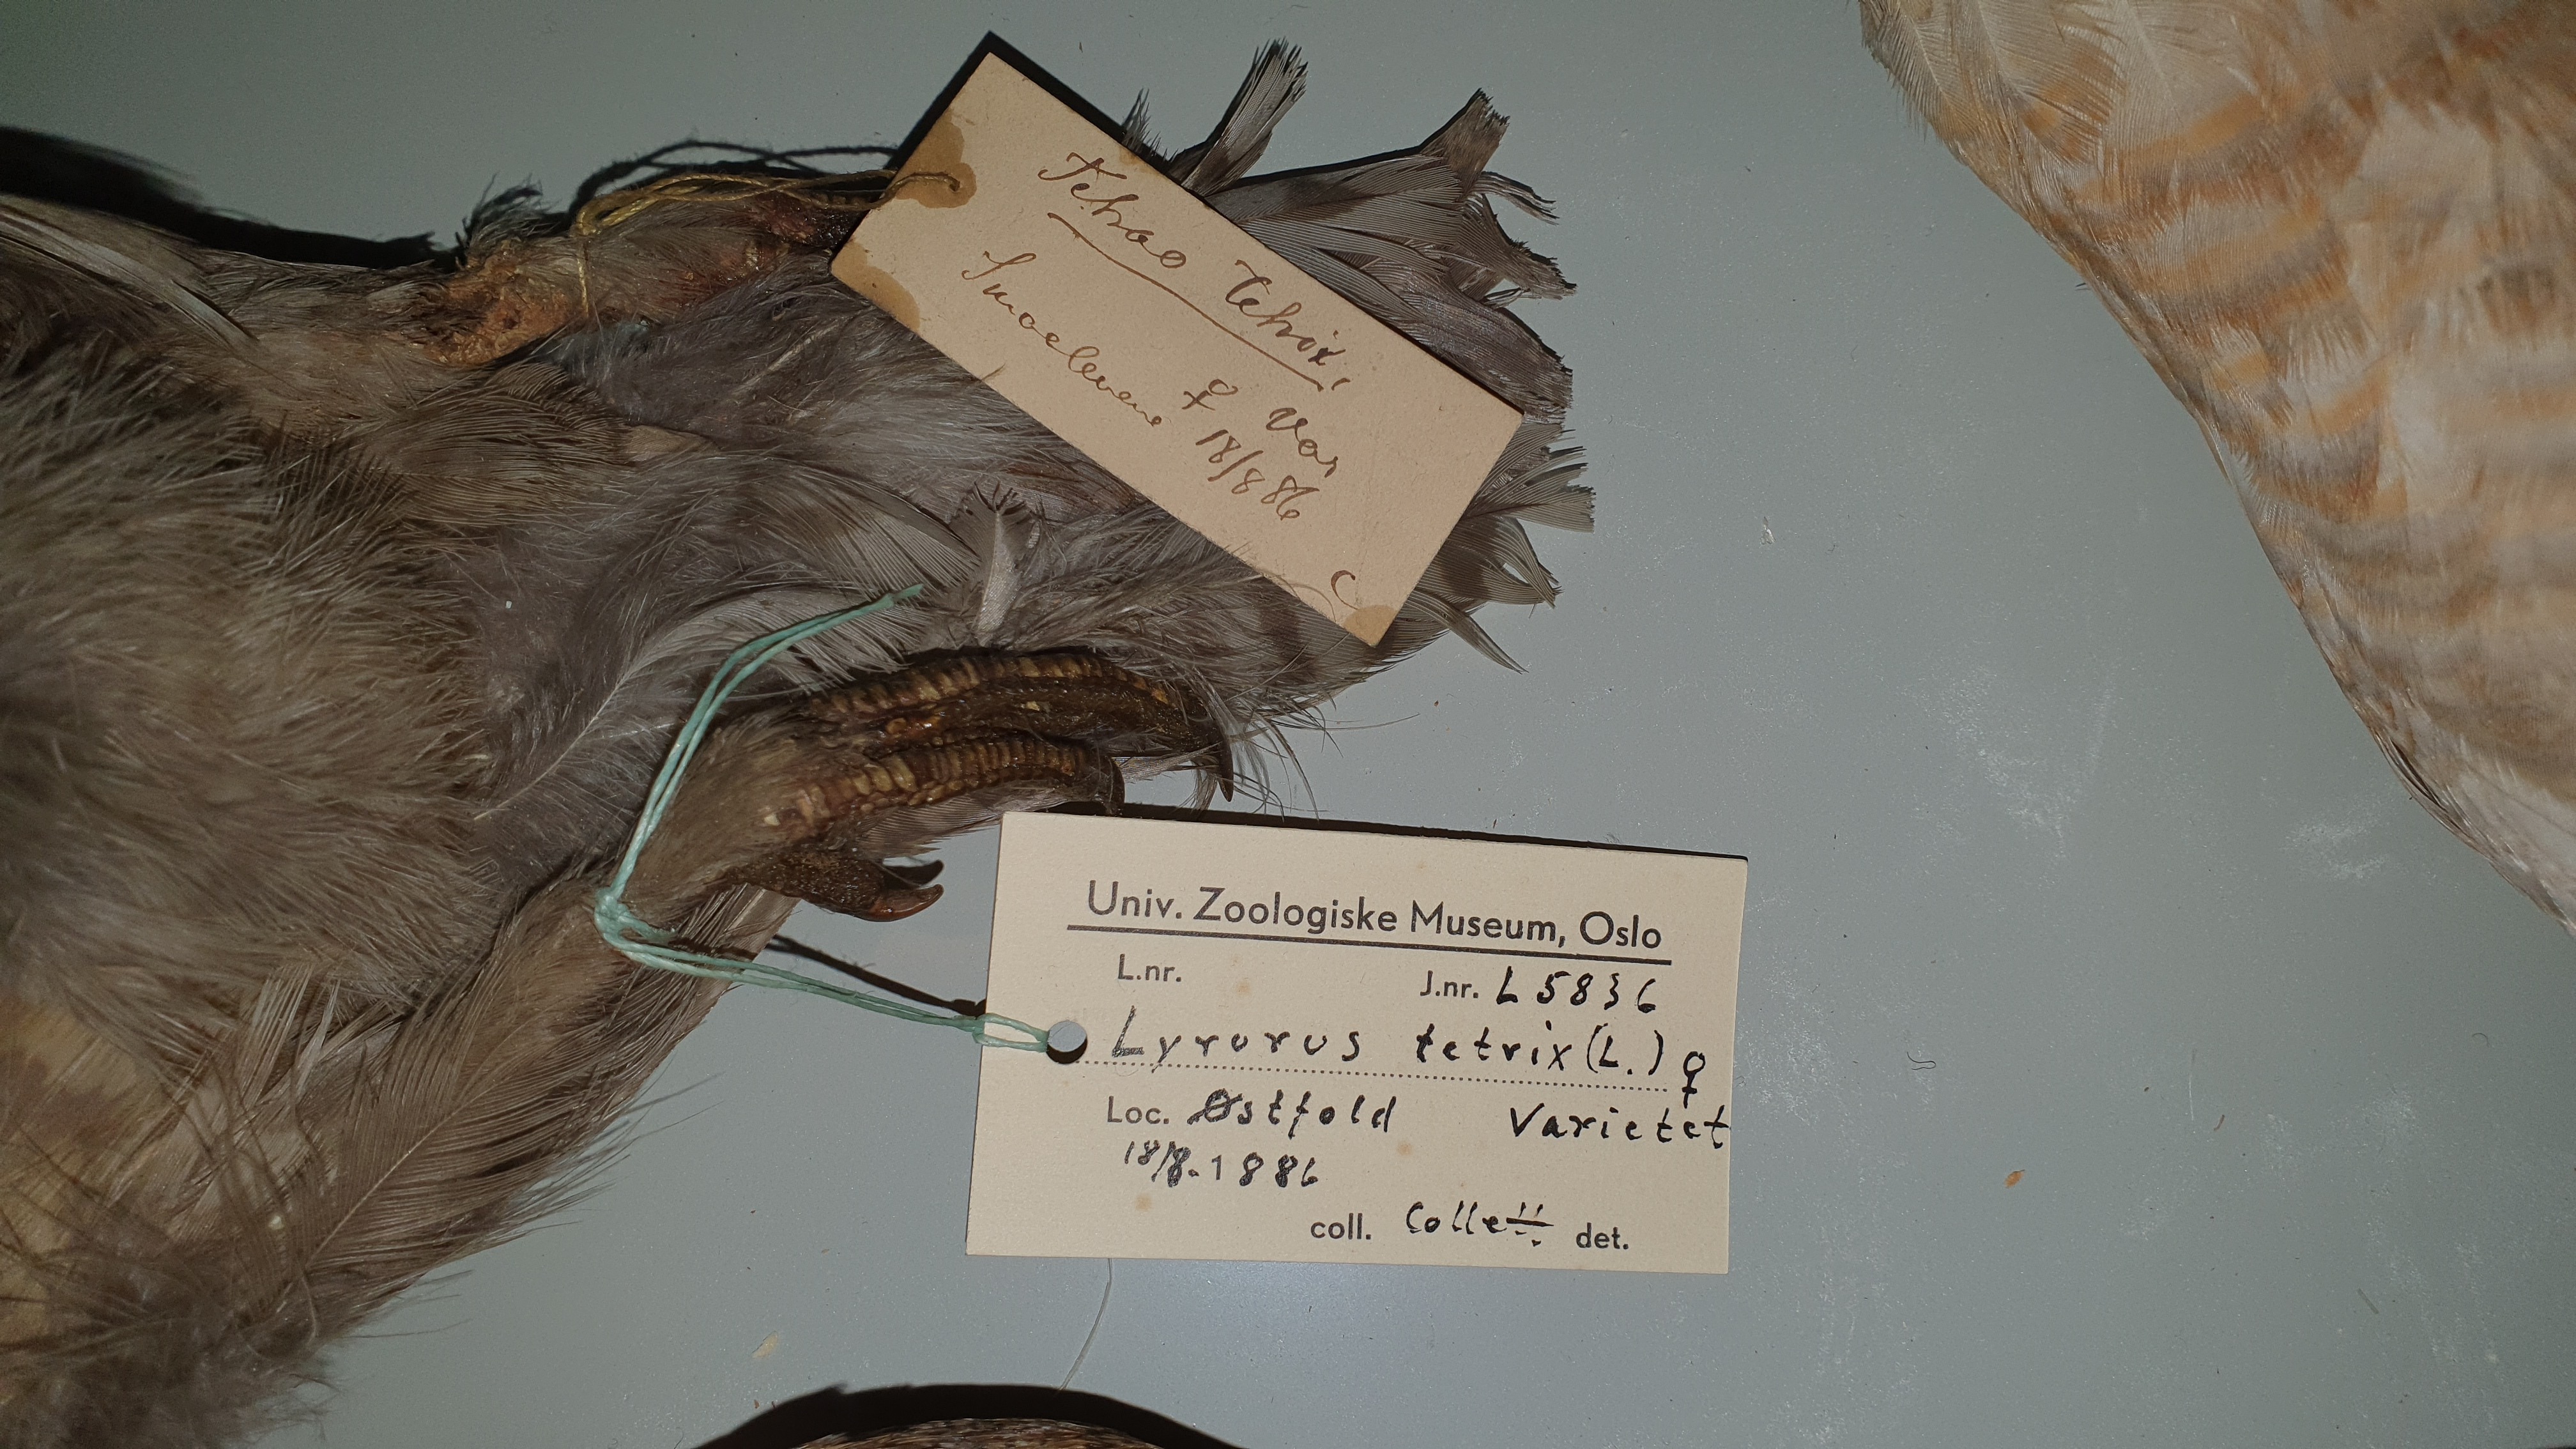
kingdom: Animalia
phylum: Chordata
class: Aves
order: Galliformes
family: Phasianidae
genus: Lyrurus
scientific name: Lyrurus tetrix
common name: Black grouse
